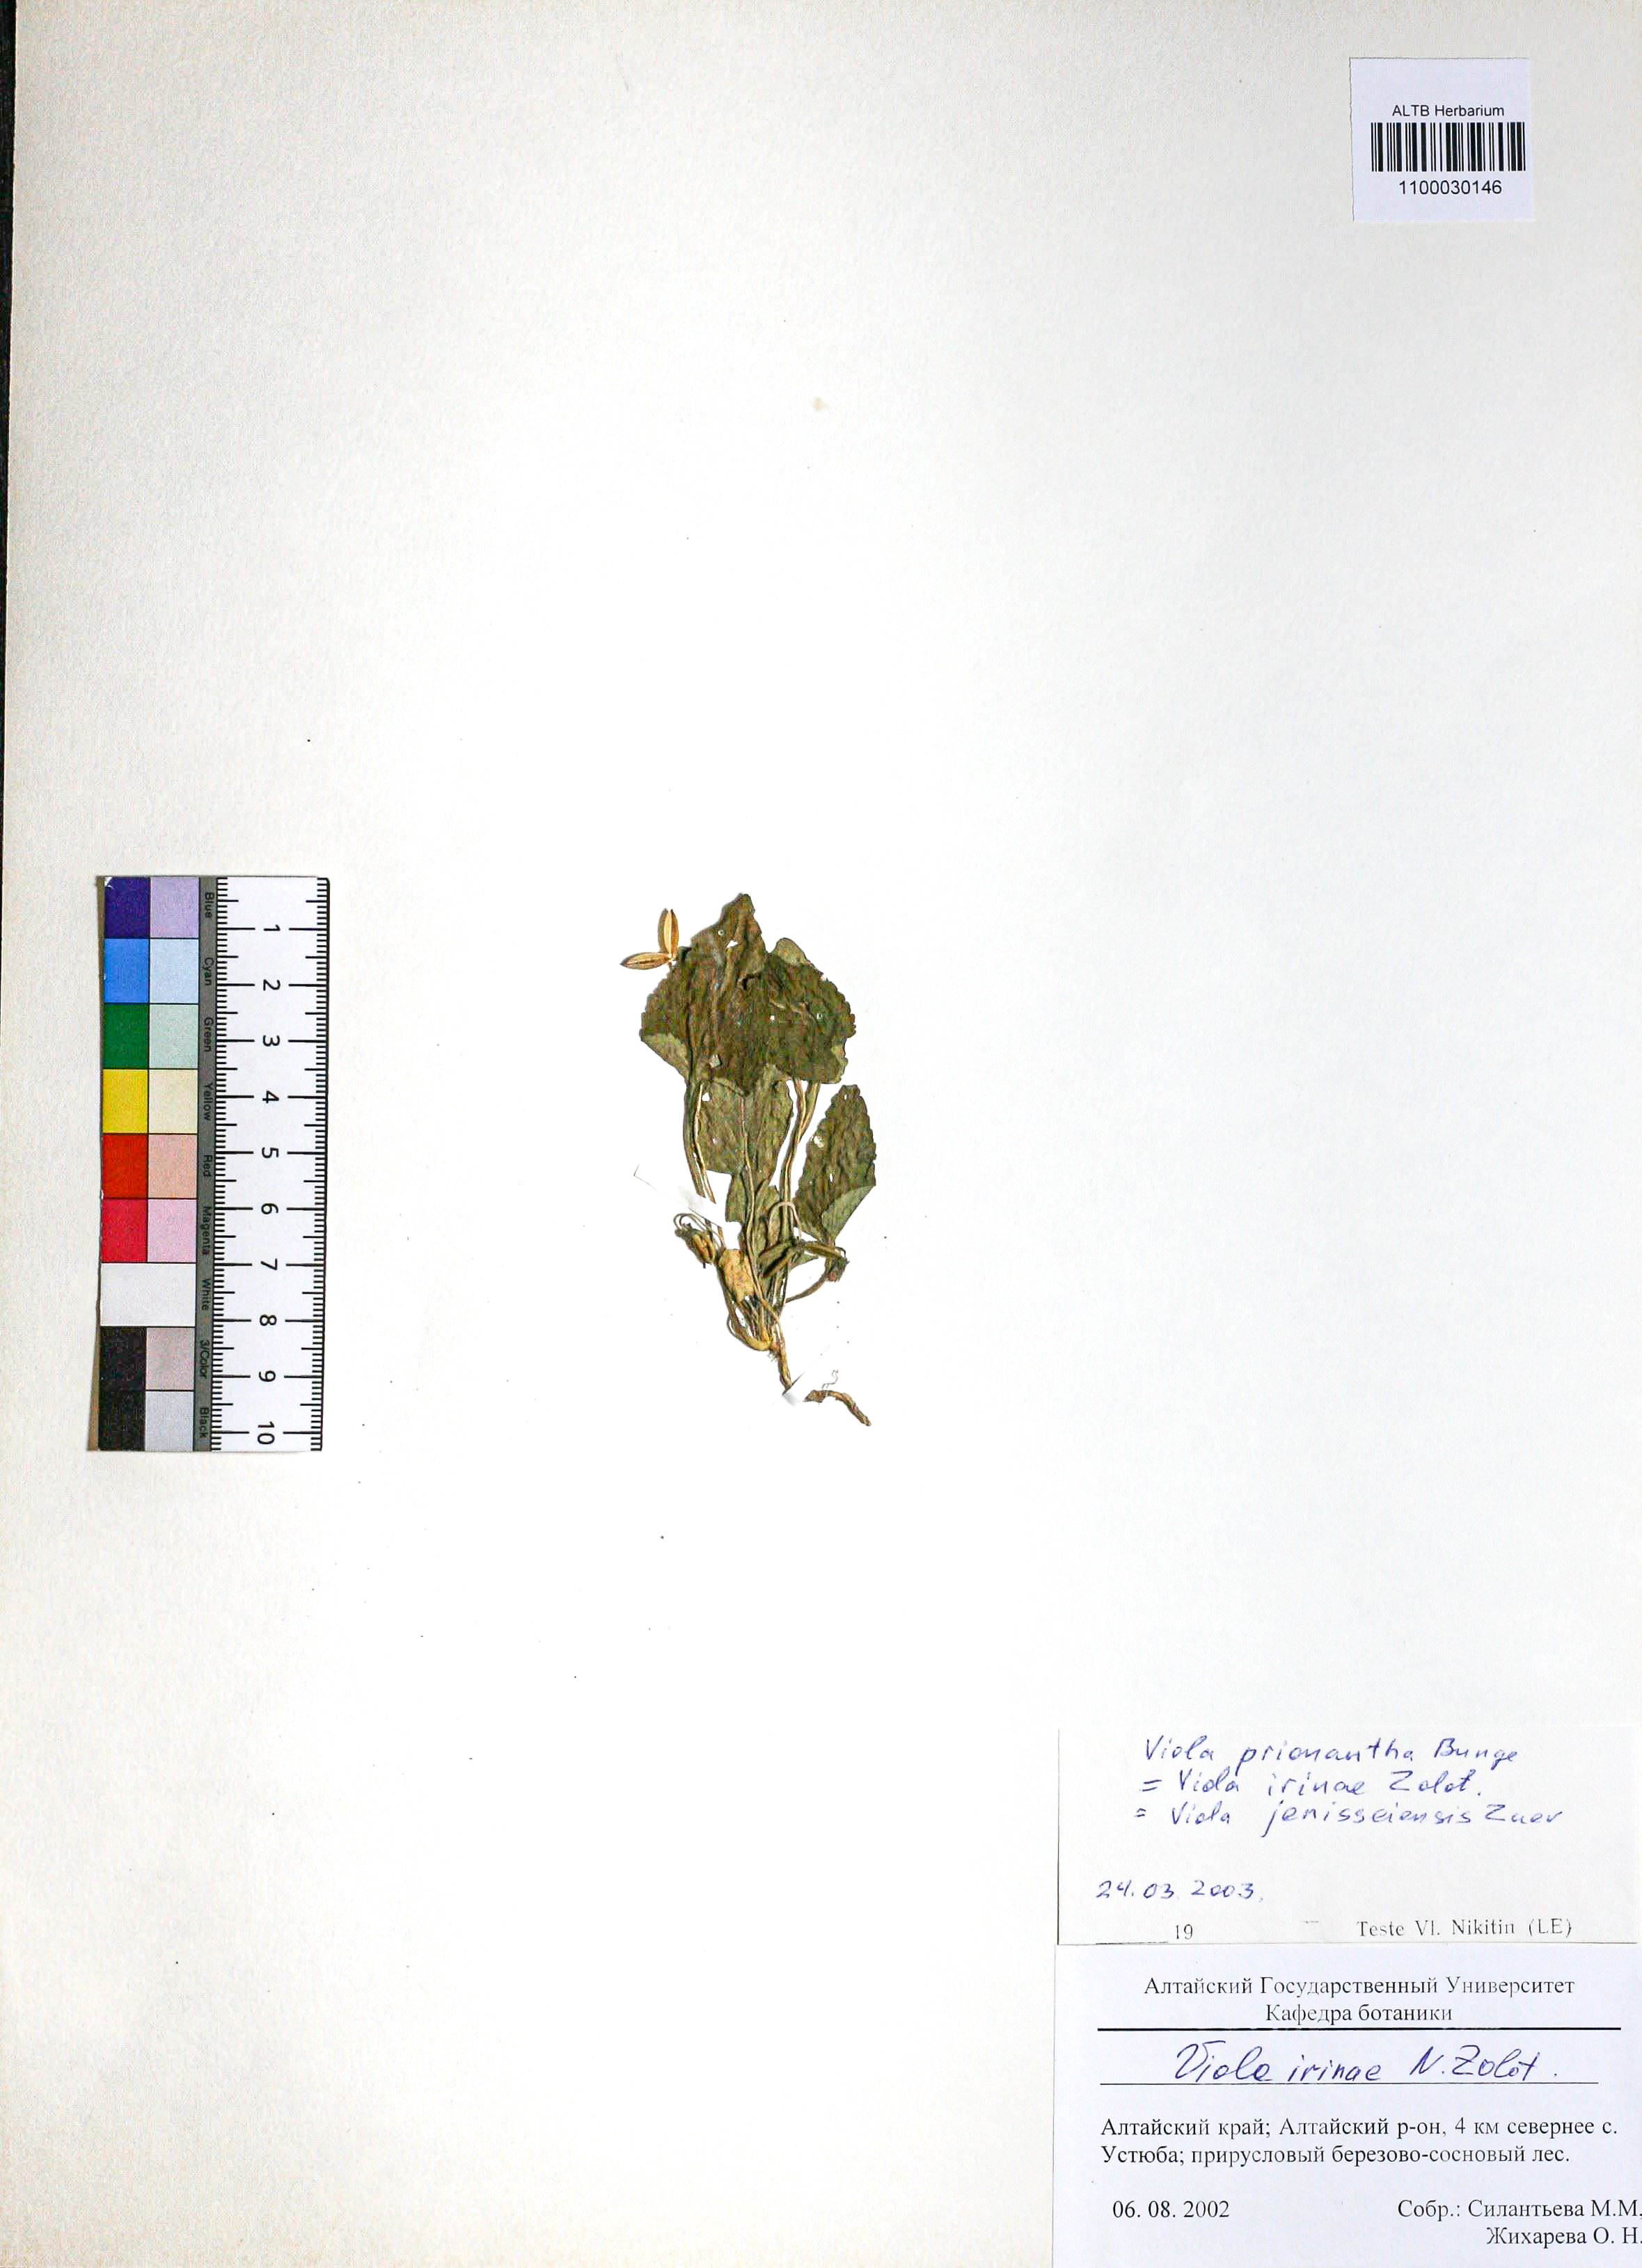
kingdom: Plantae
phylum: Tracheophyta
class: Magnoliopsida
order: Malpighiales
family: Violaceae
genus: Viola
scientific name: Viola prionantha
